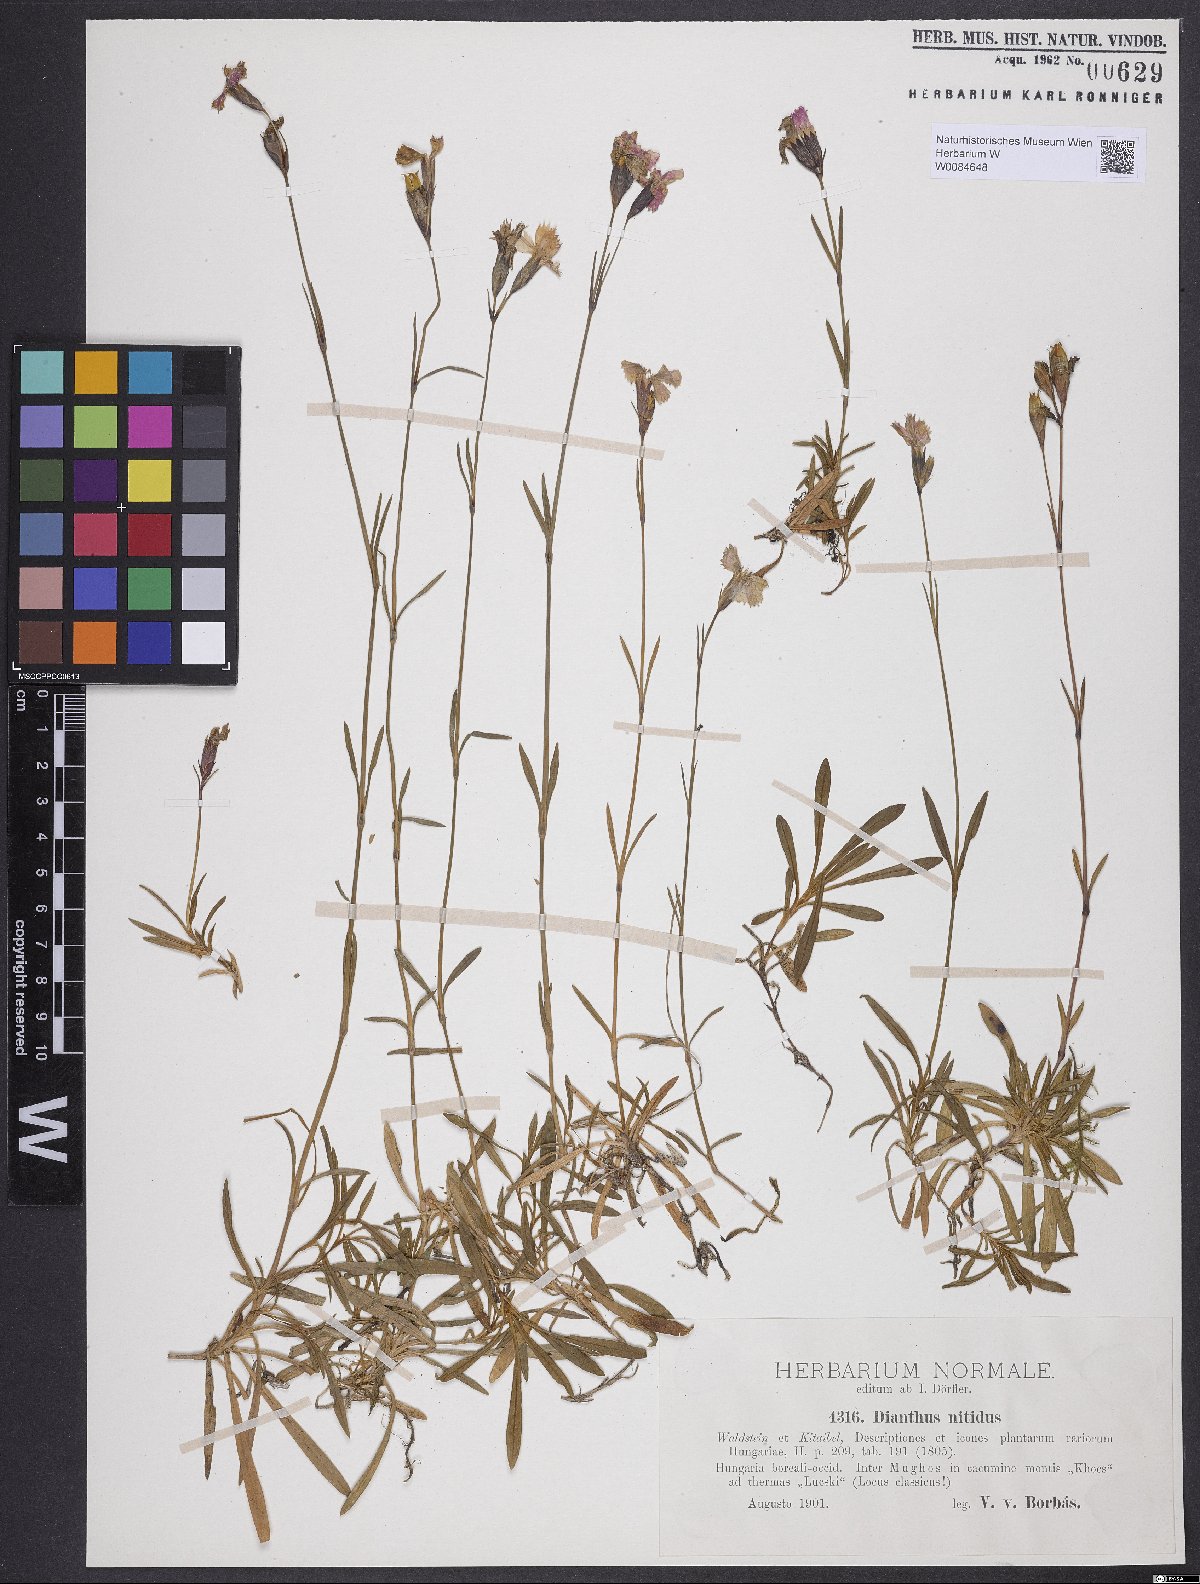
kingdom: Plantae
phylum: Tracheophyta
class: Magnoliopsida
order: Caryophyllales
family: Caryophyllaceae
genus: Dianthus
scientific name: Dianthus nitidus
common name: Carpathian glossy pink
